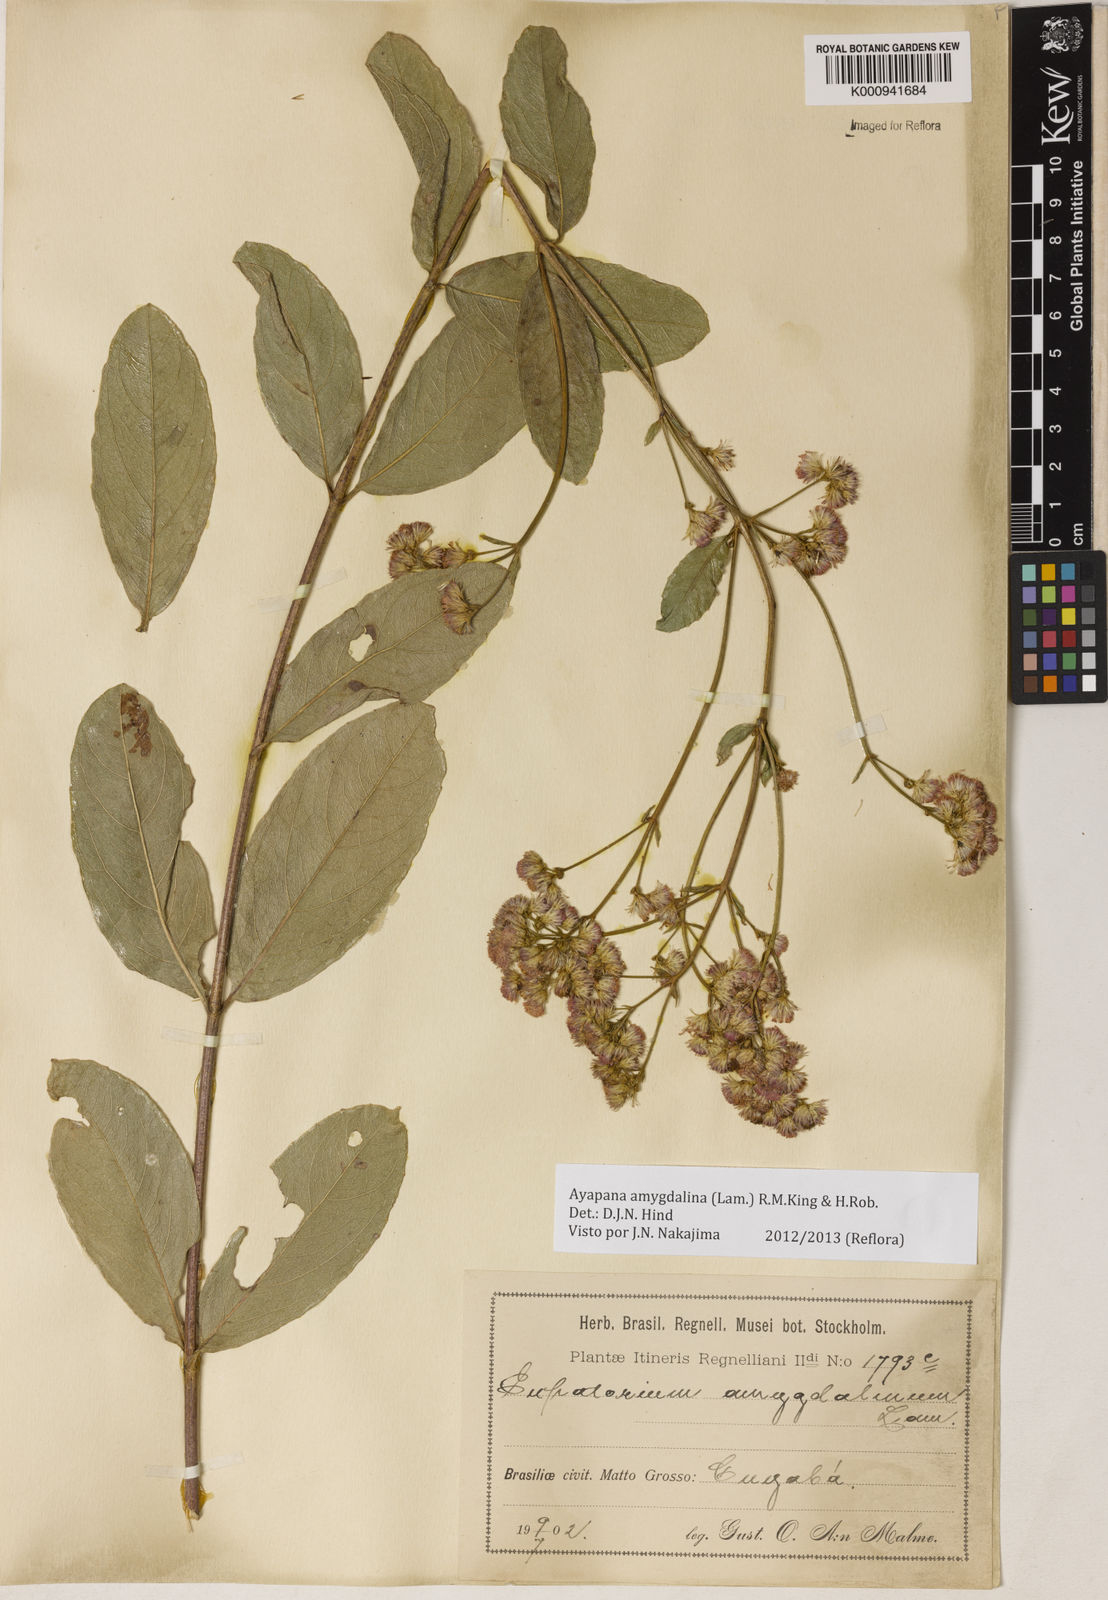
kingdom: Plantae
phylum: Tracheophyta
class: Magnoliopsida
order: Asterales
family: Asteraceae
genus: Ayapana
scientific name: Ayapana amygdalina
